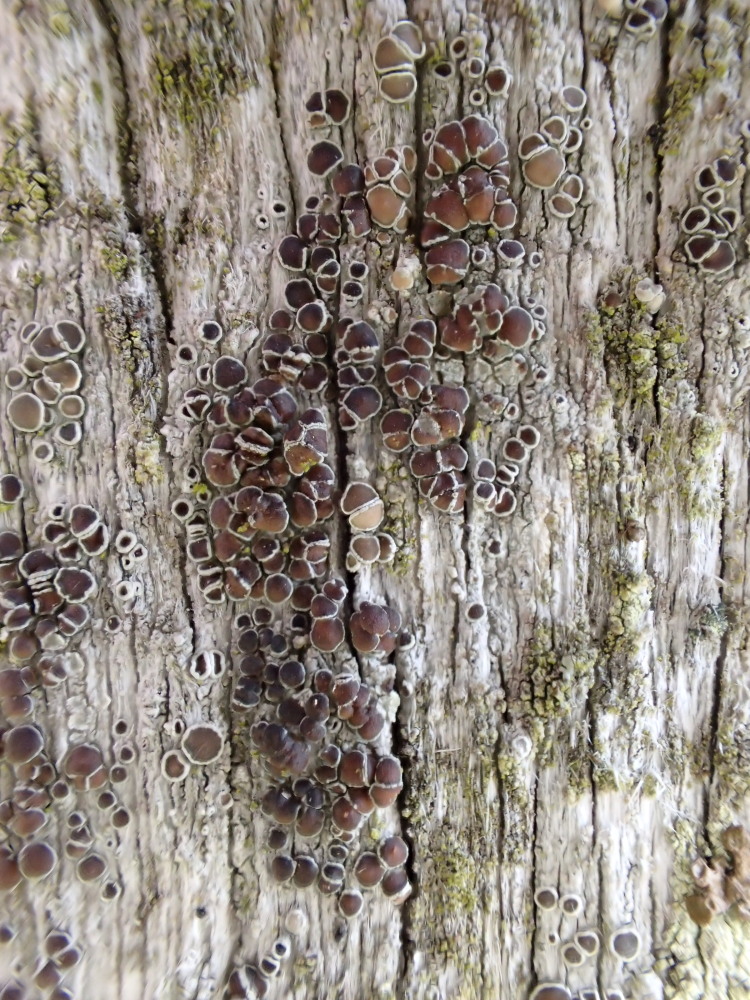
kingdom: Fungi
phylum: Ascomycota
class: Lecanoromycetes
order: Lecanorales
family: Lecanoraceae
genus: Lecanora
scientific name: Lecanora pulicaris
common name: almindelig kantskivelav
